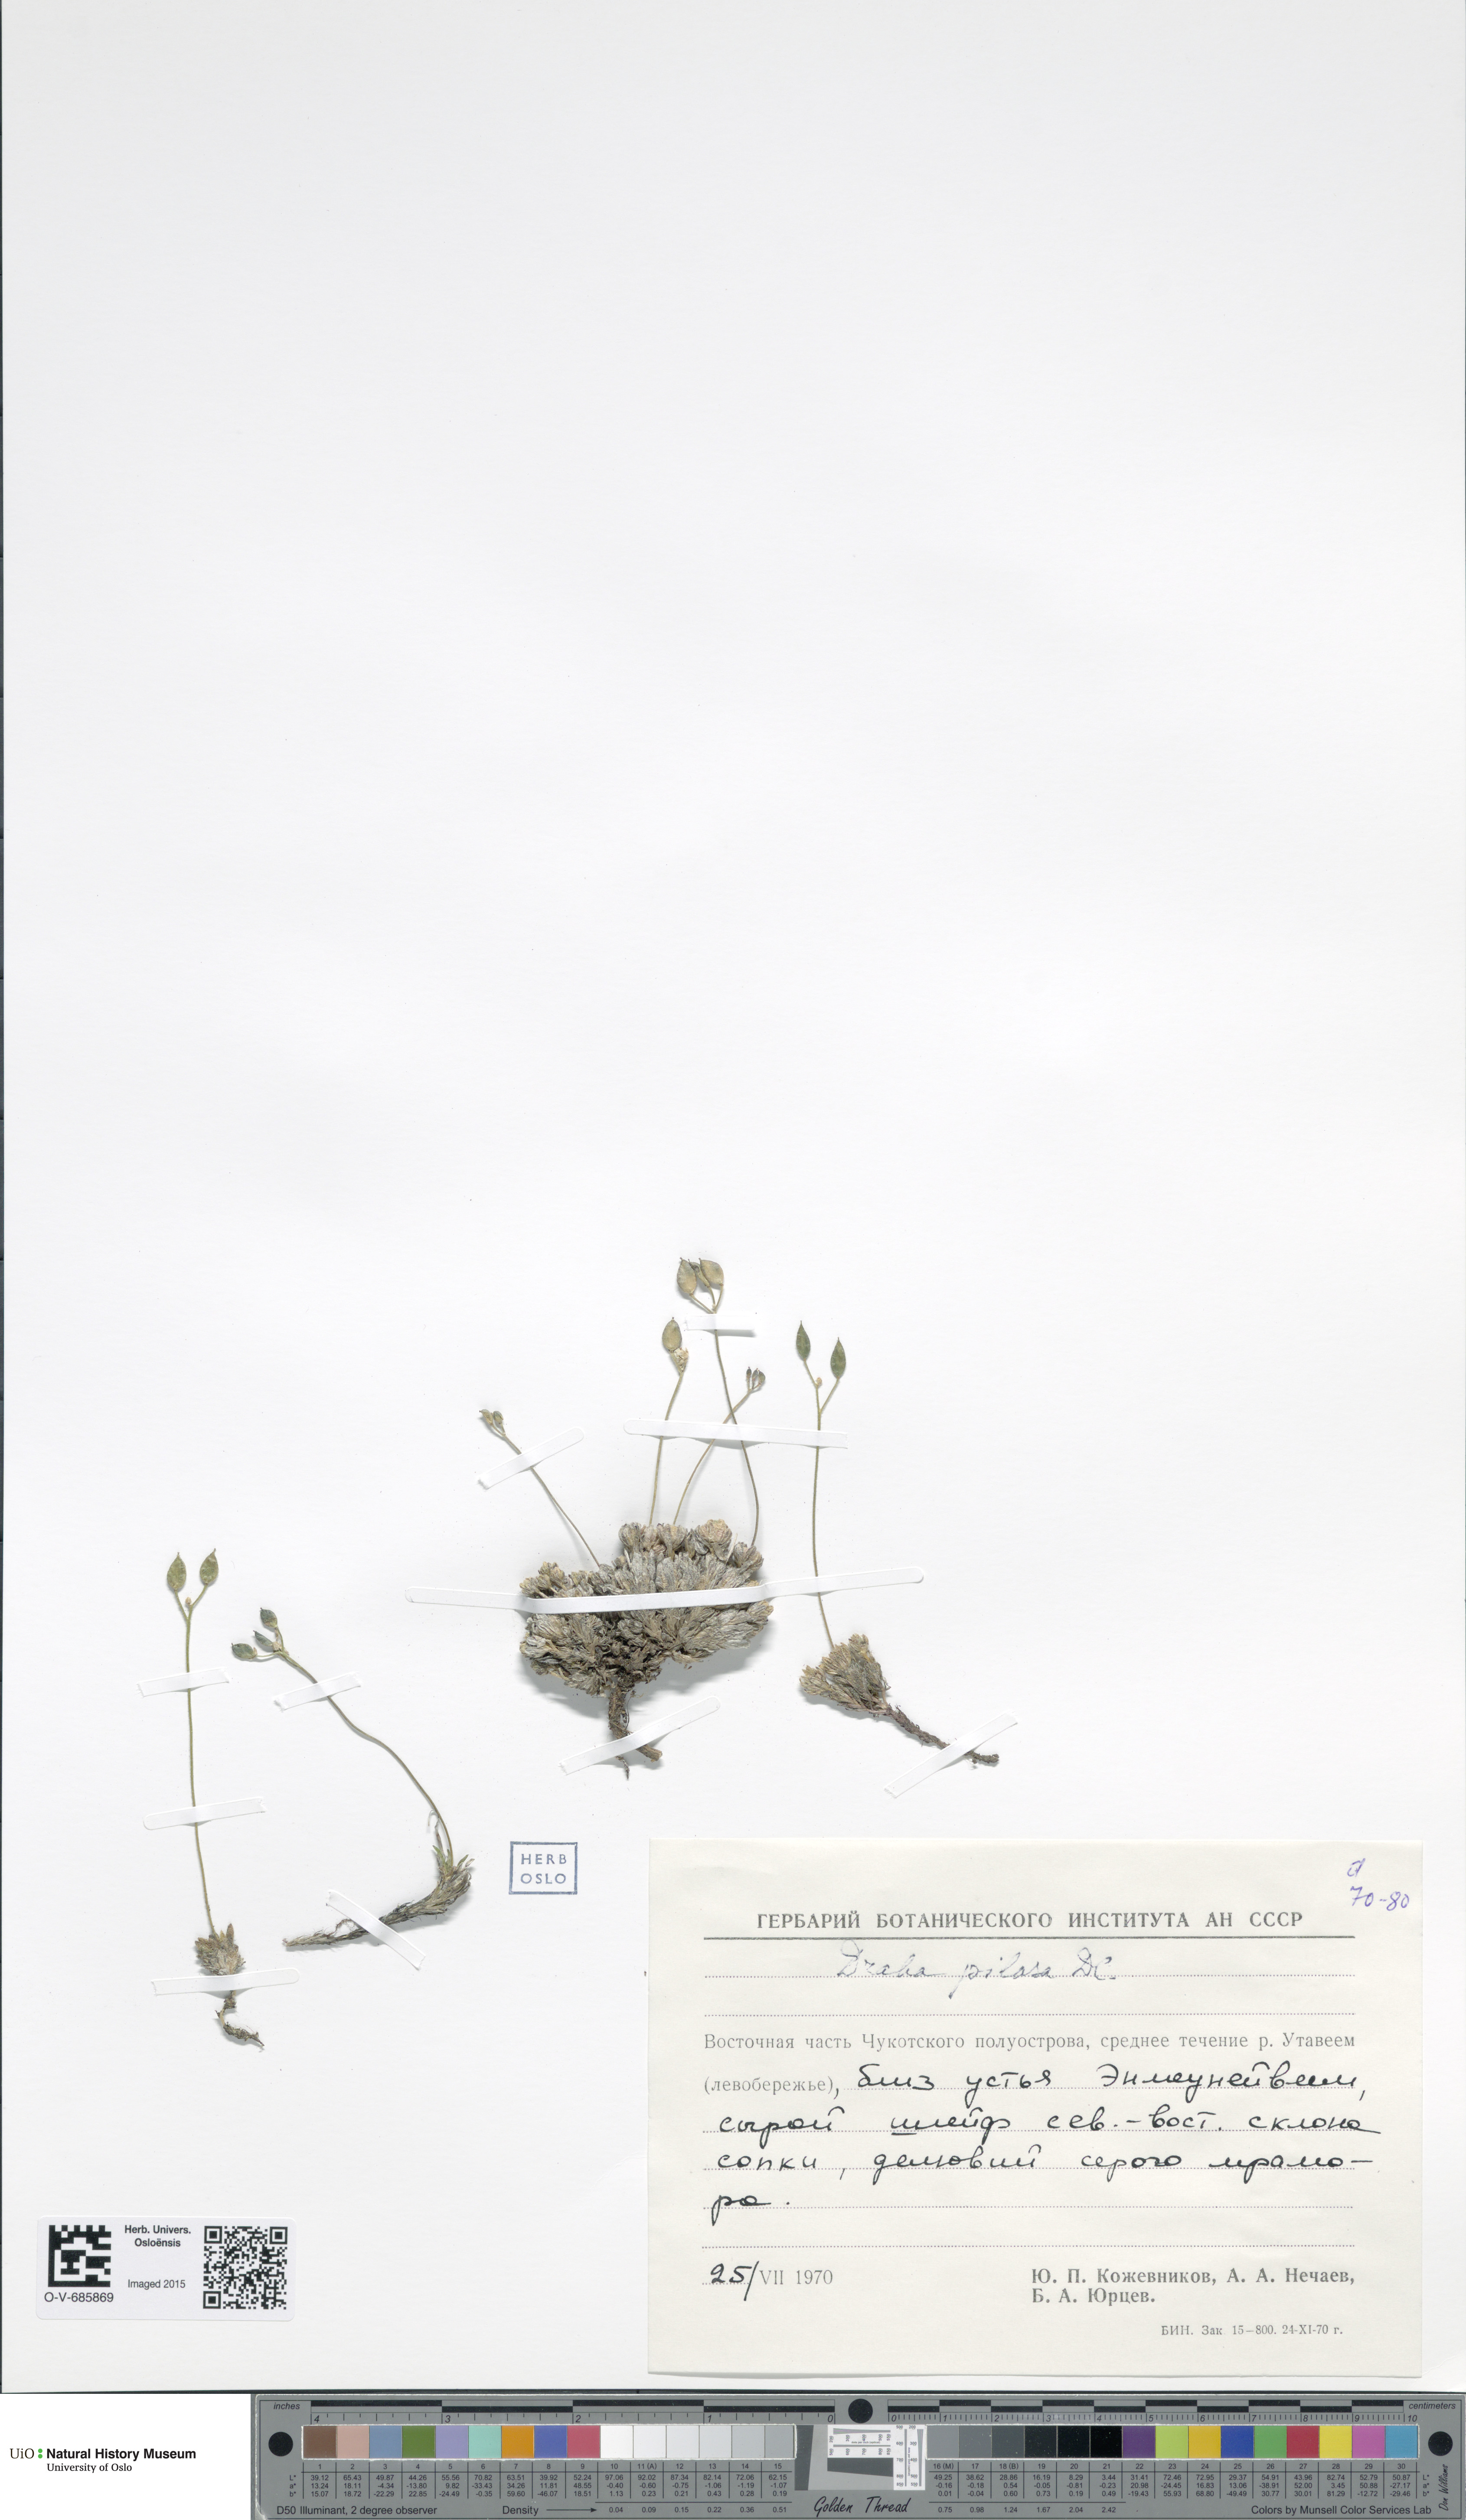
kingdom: Plantae
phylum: Tracheophyta
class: Magnoliopsida
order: Brassicales
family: Brassicaceae
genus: Draba
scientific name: Draba pilosa
